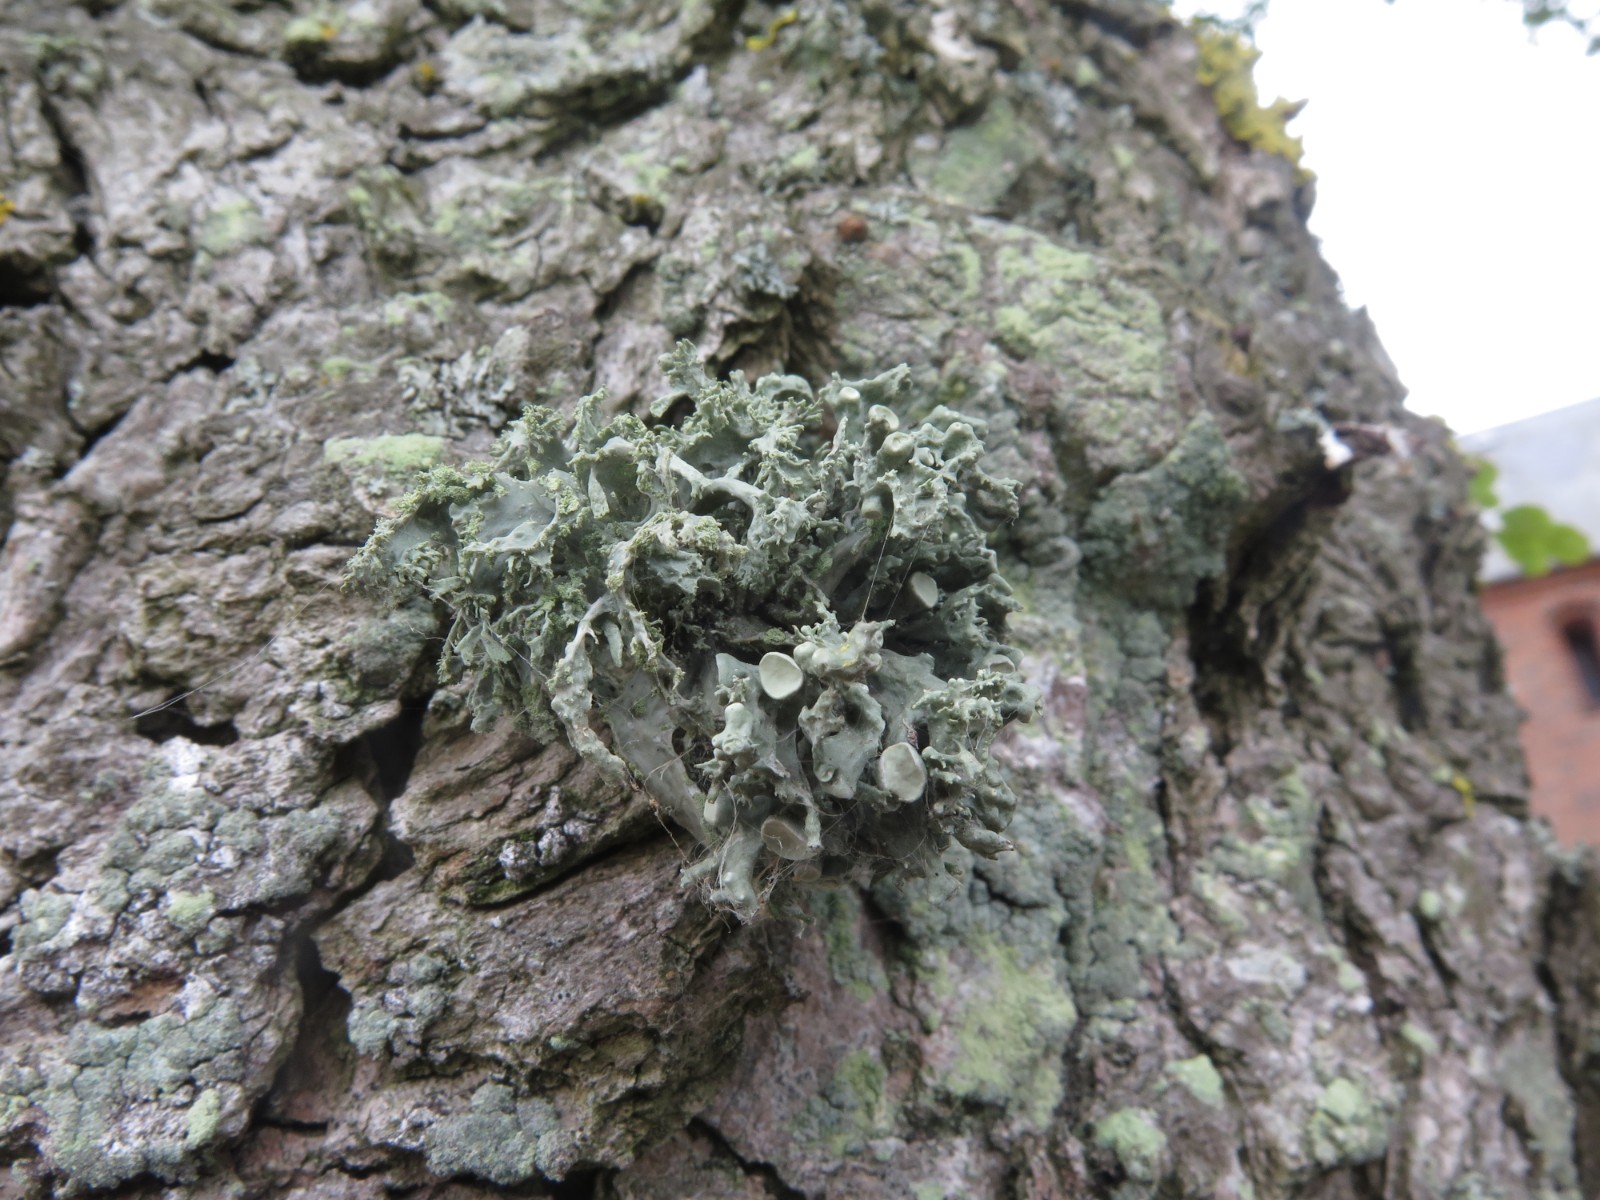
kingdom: Fungi
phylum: Ascomycota
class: Lecanoromycetes
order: Lecanorales
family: Ramalinaceae
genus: Ramalina
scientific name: Ramalina fastigiata
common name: tue-grenlav
